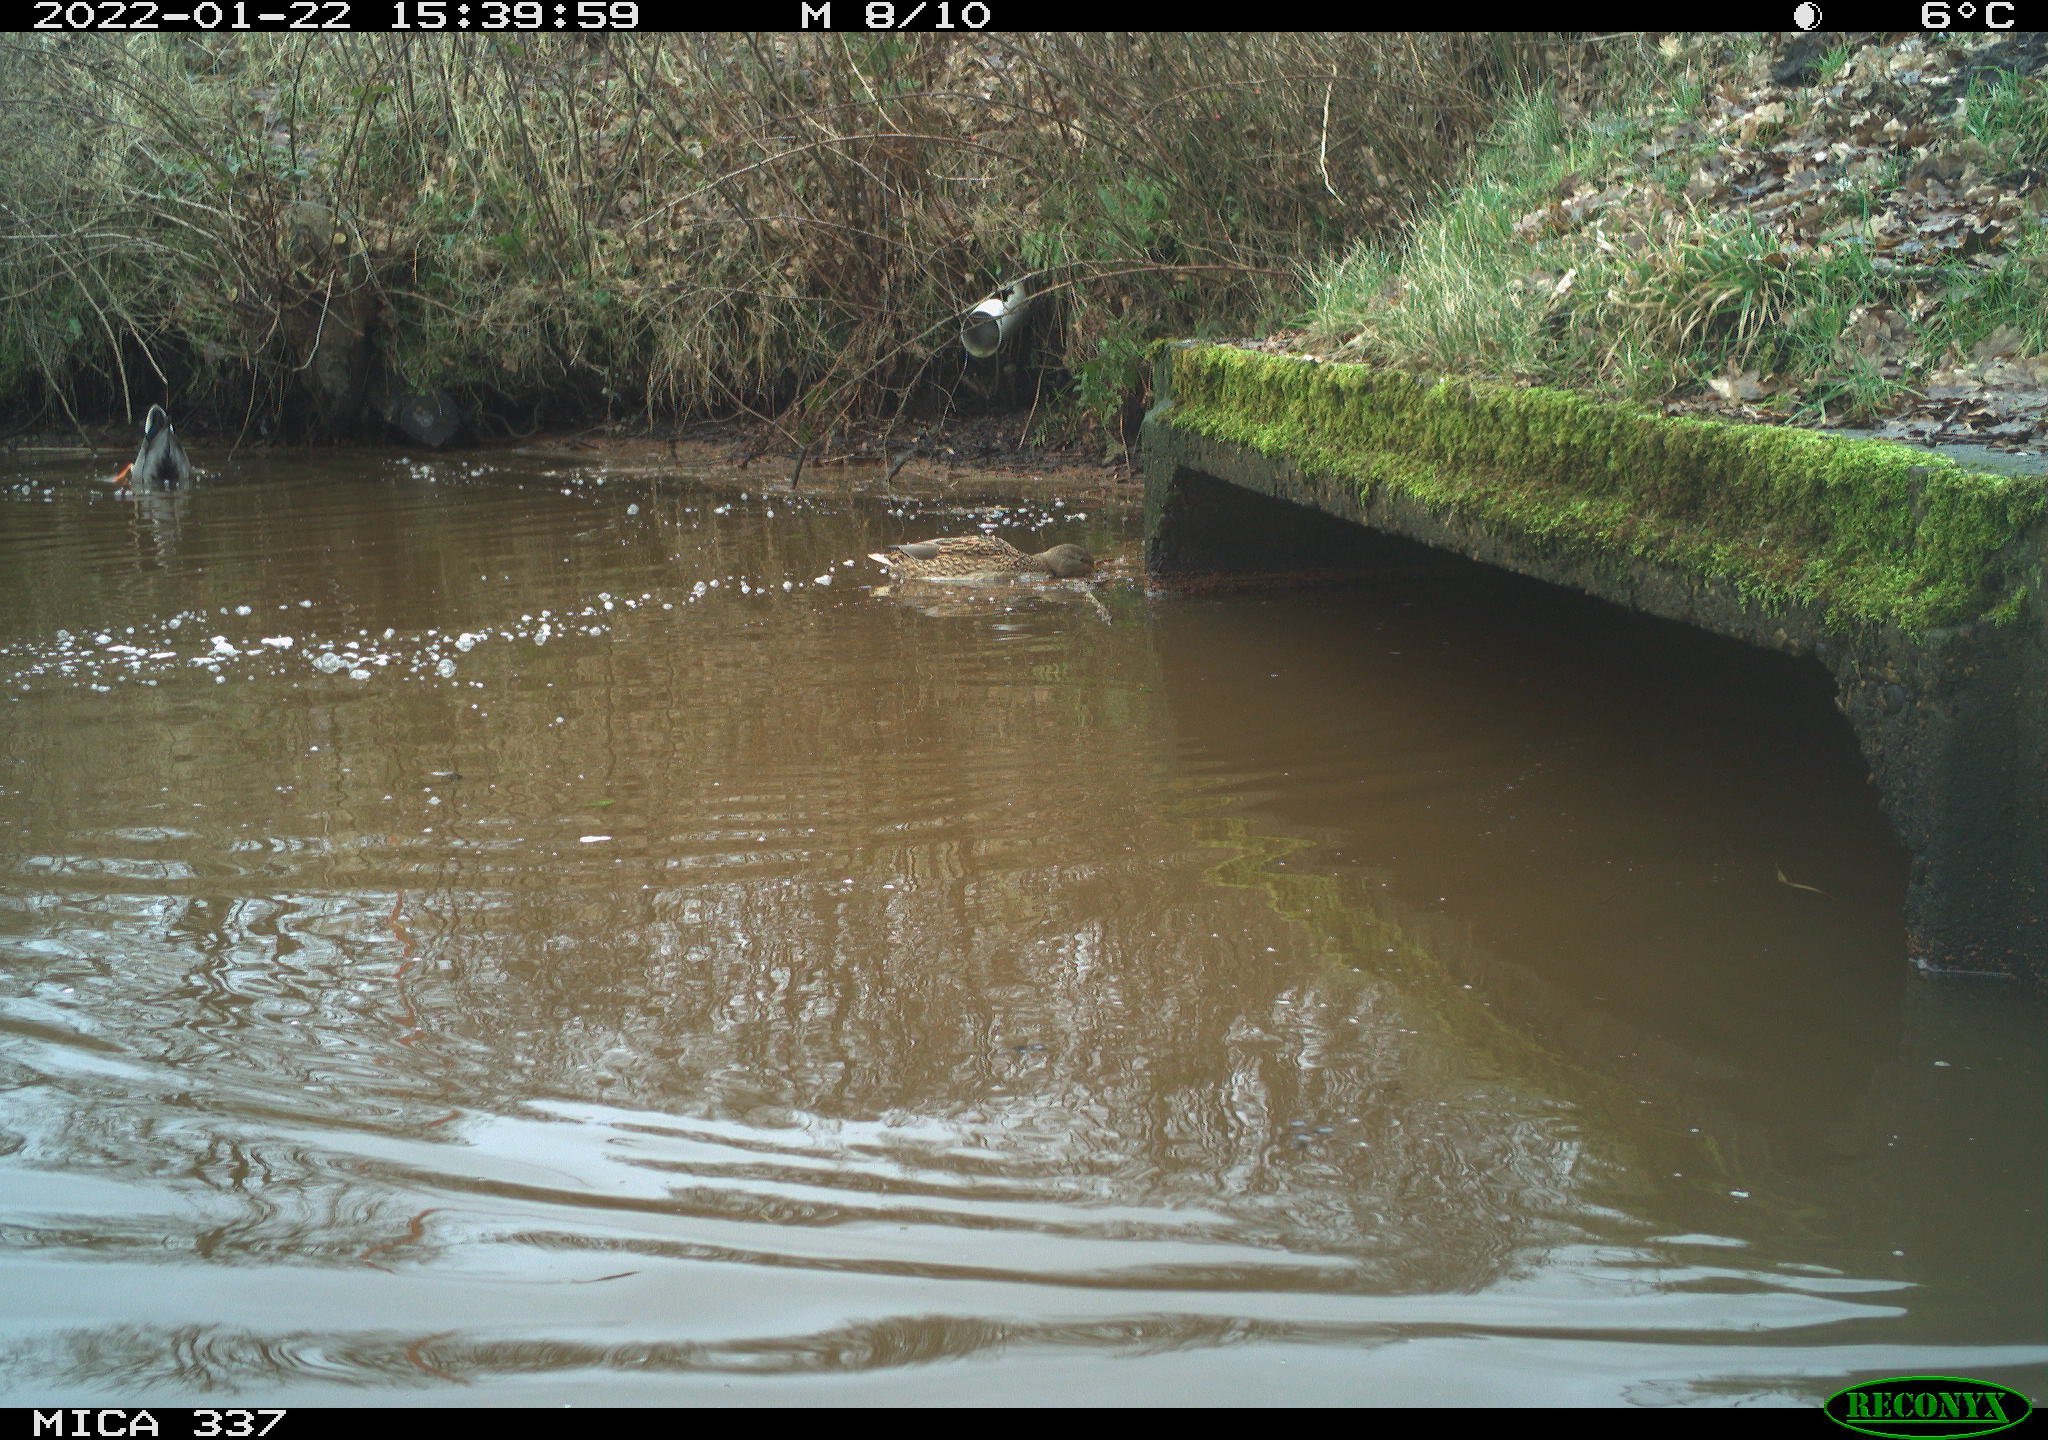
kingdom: Animalia
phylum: Chordata
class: Aves
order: Anseriformes
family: Anatidae
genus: Anas
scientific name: Anas platyrhynchos
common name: Mallard
